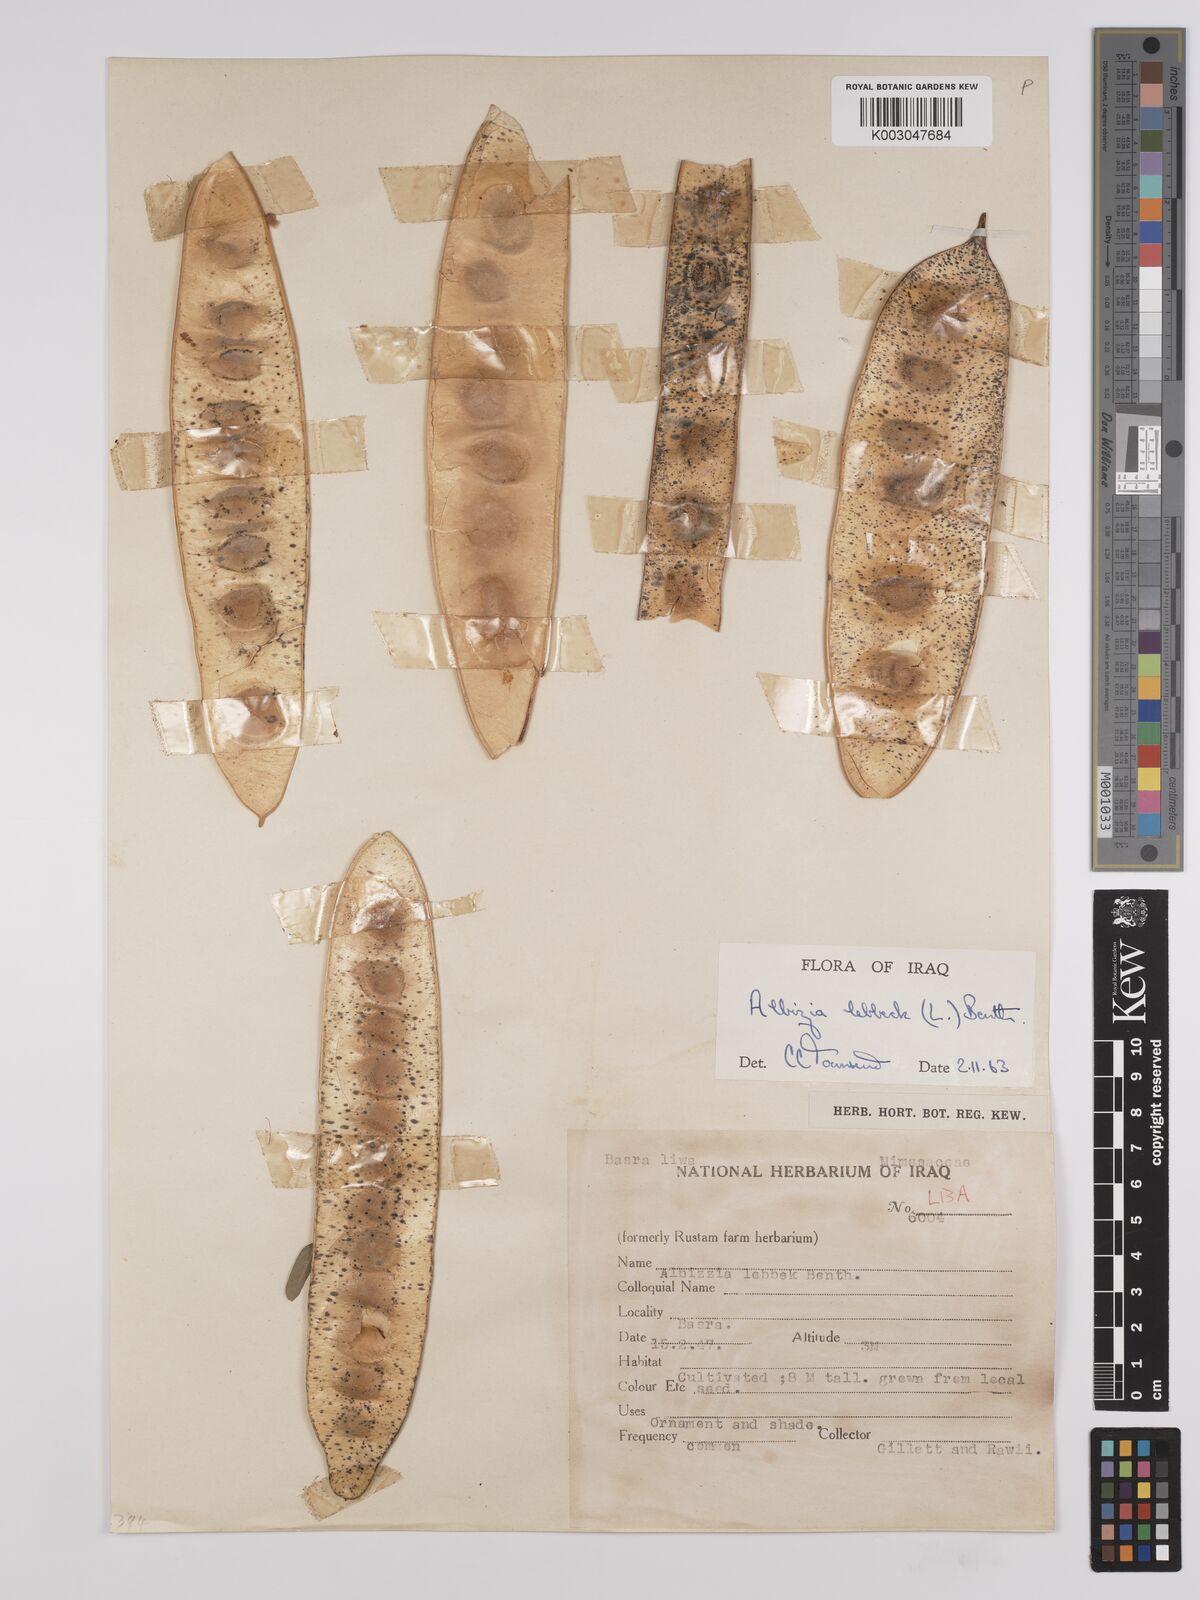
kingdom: Plantae
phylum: Tracheophyta
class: Magnoliopsida
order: Fabales
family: Fabaceae
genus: Albizia
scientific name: Albizia lebbeck
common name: Woman's tongue
